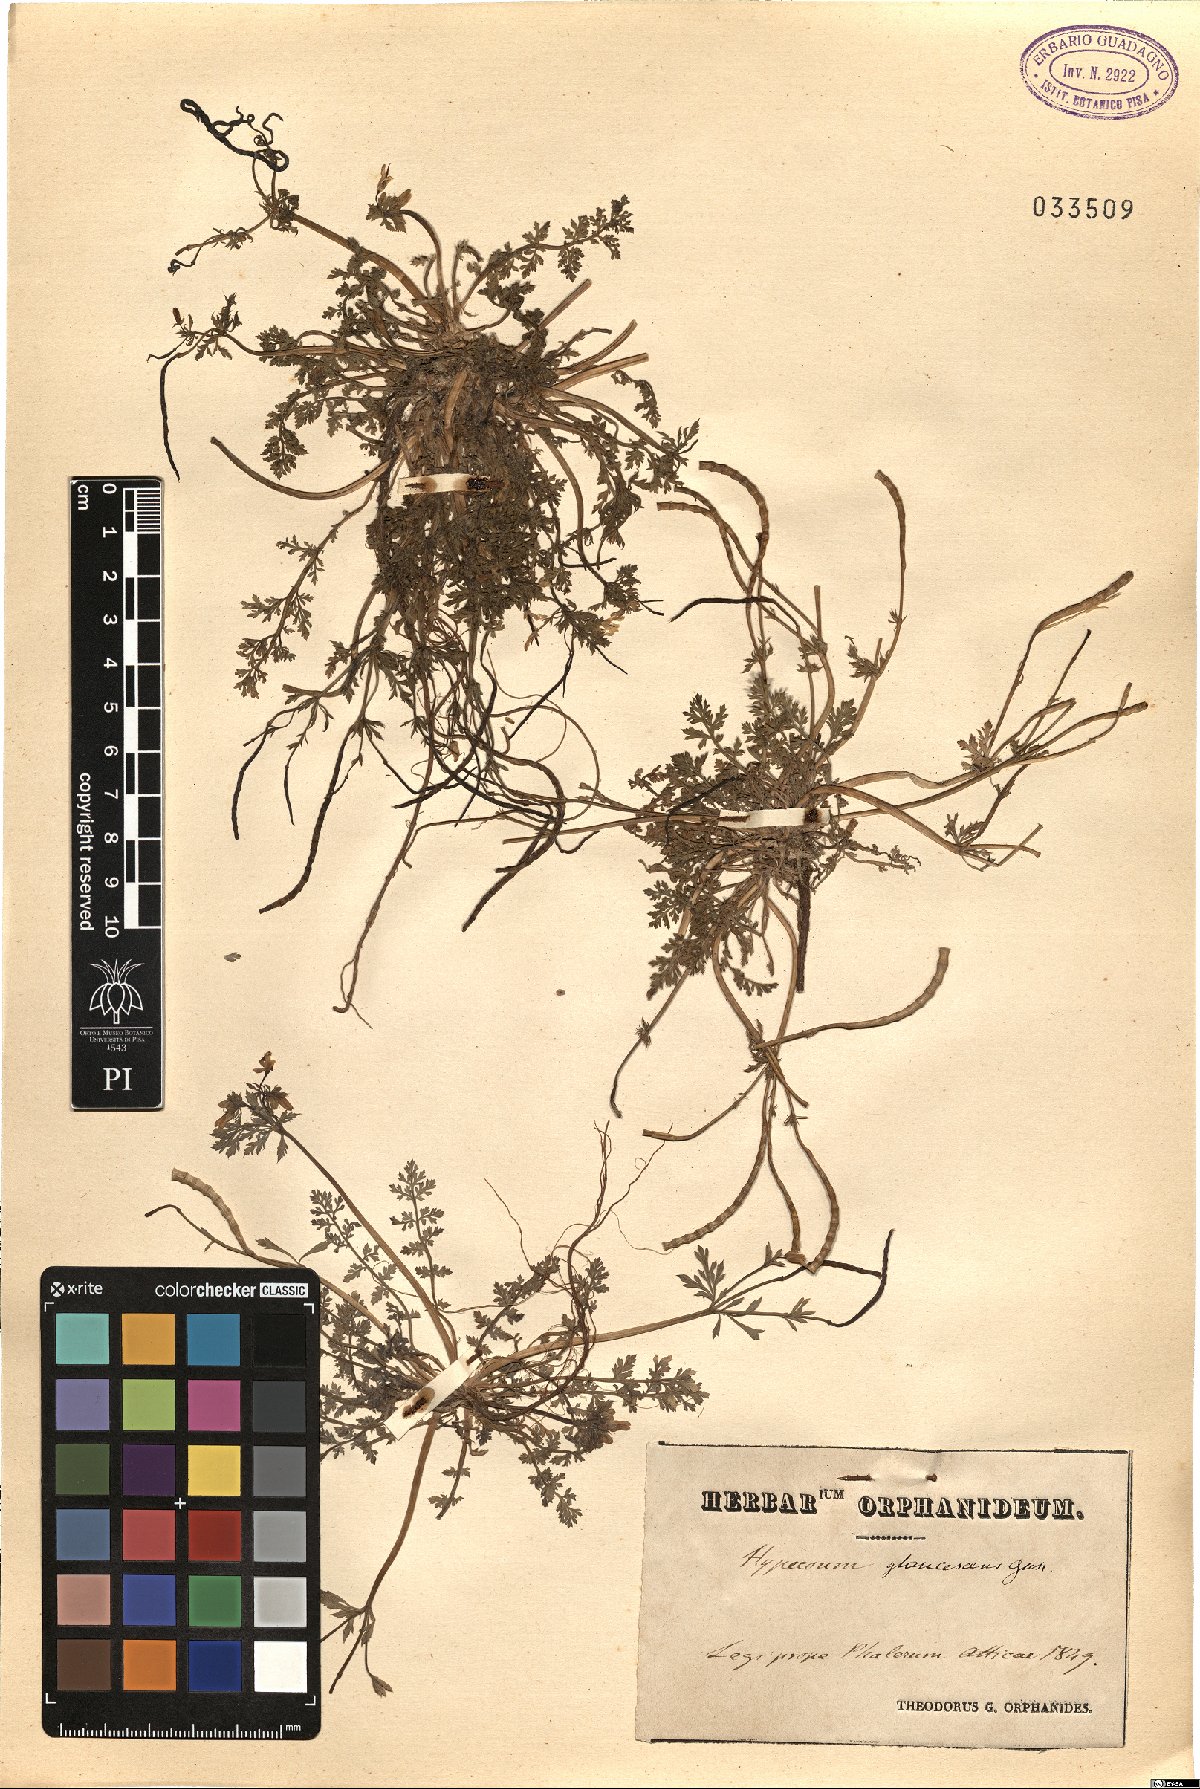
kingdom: Plantae
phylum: Tracheophyta
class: Magnoliopsida
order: Ranunculales
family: Papaveraceae
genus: Hypecoum
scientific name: Hypecoum
